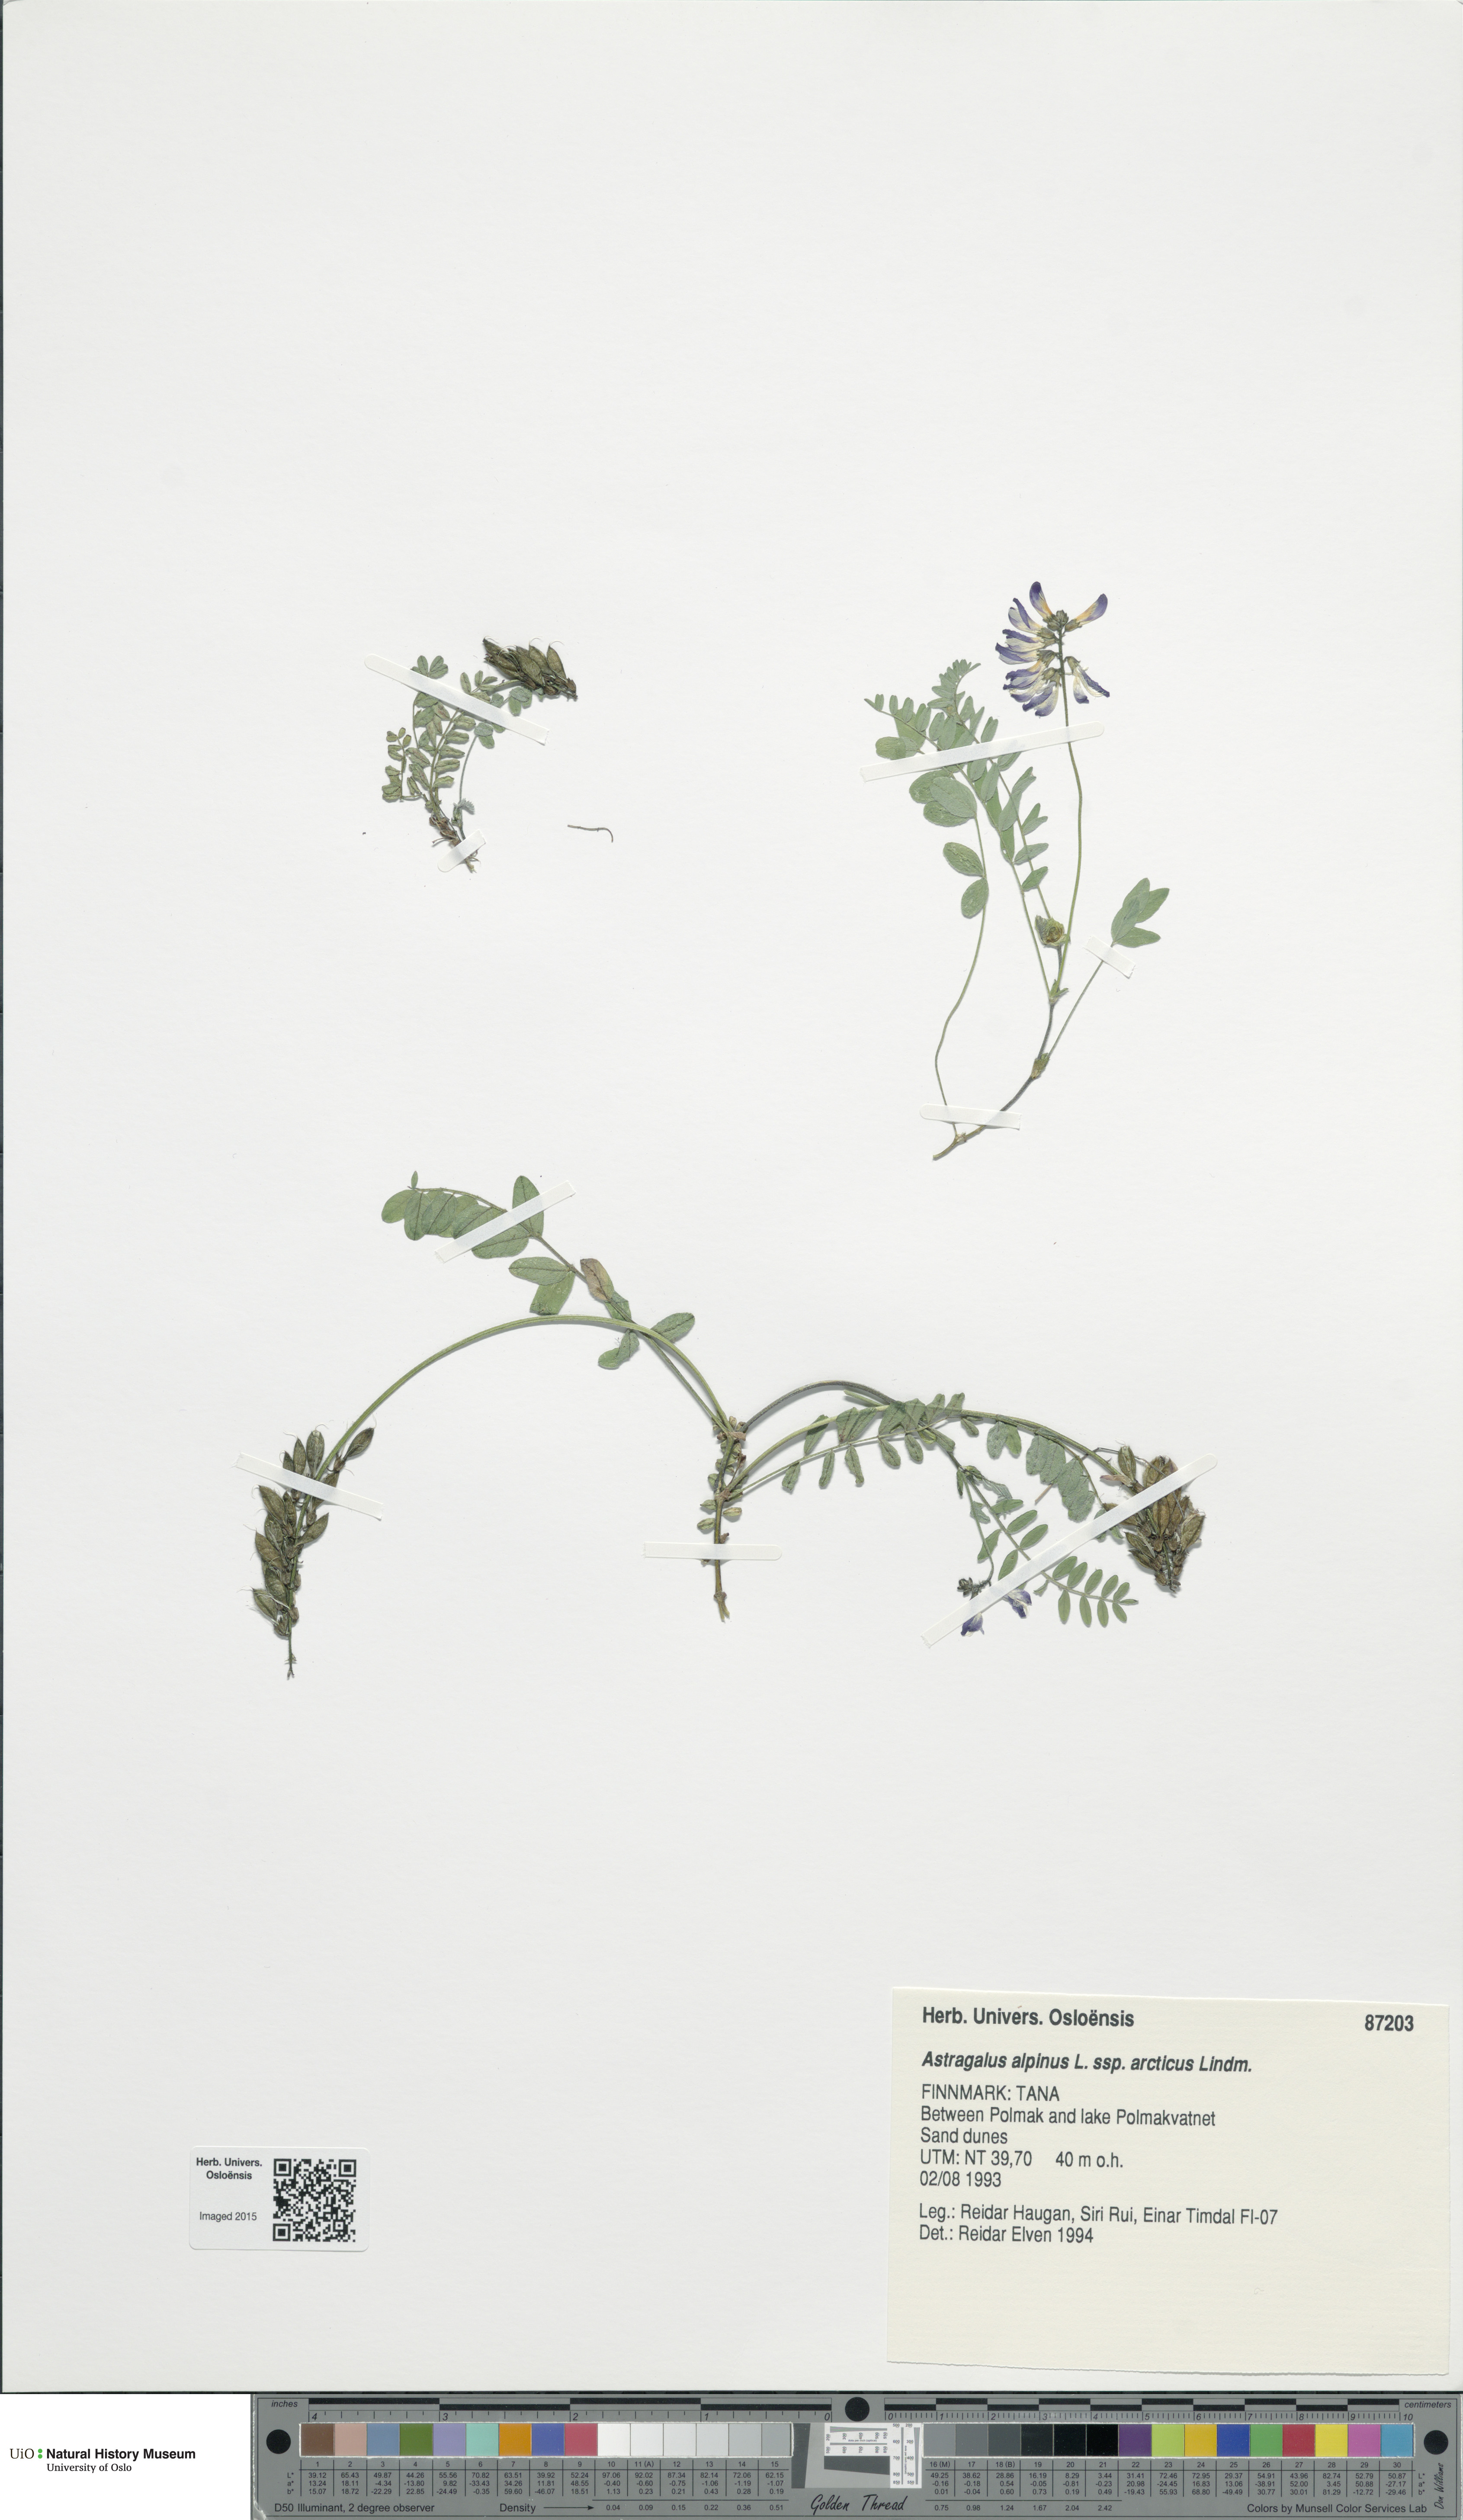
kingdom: Plantae
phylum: Tracheophyta
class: Magnoliopsida
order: Fabales
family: Fabaceae
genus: Astragalus
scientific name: Astragalus norvegicus
